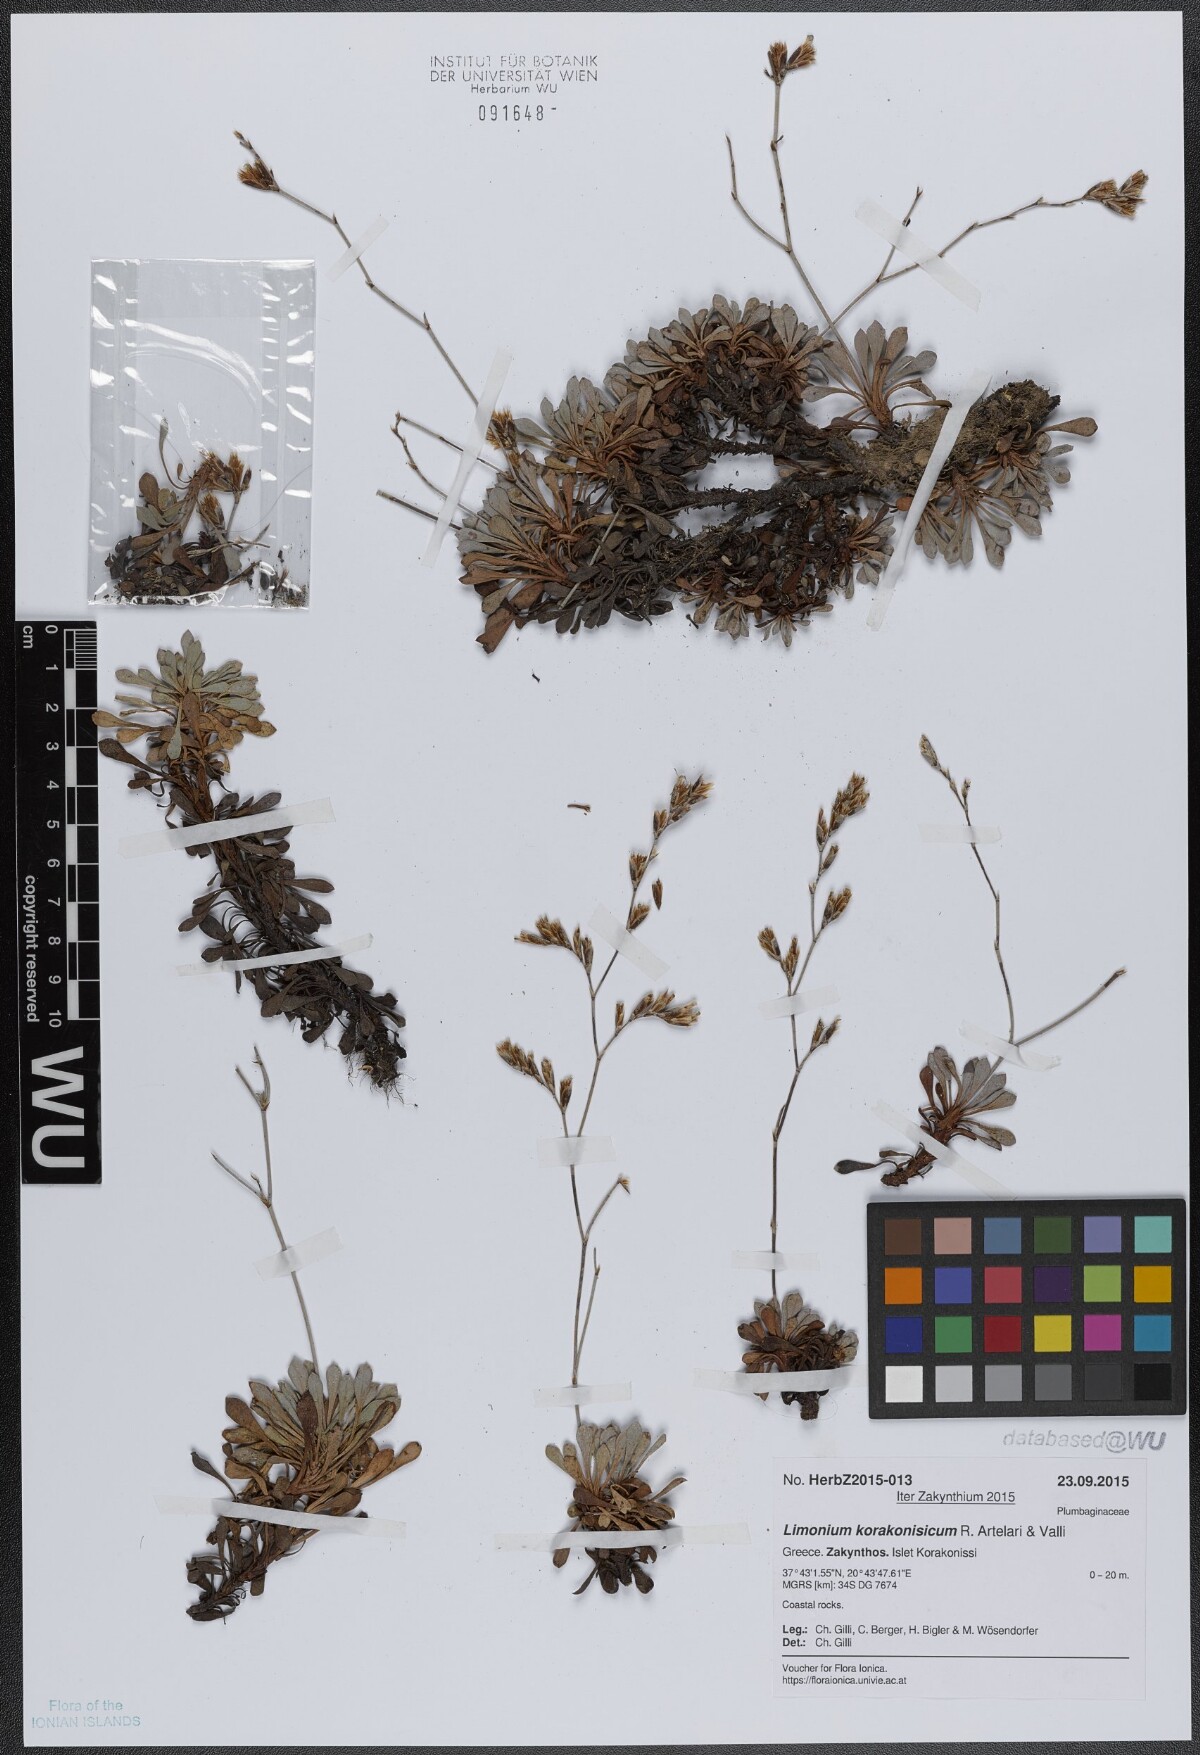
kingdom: Plantae
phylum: Tracheophyta
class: Magnoliopsida
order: Caryophyllales
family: Plumbaginaceae
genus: Limonium
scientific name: Limonium korakonisicum
